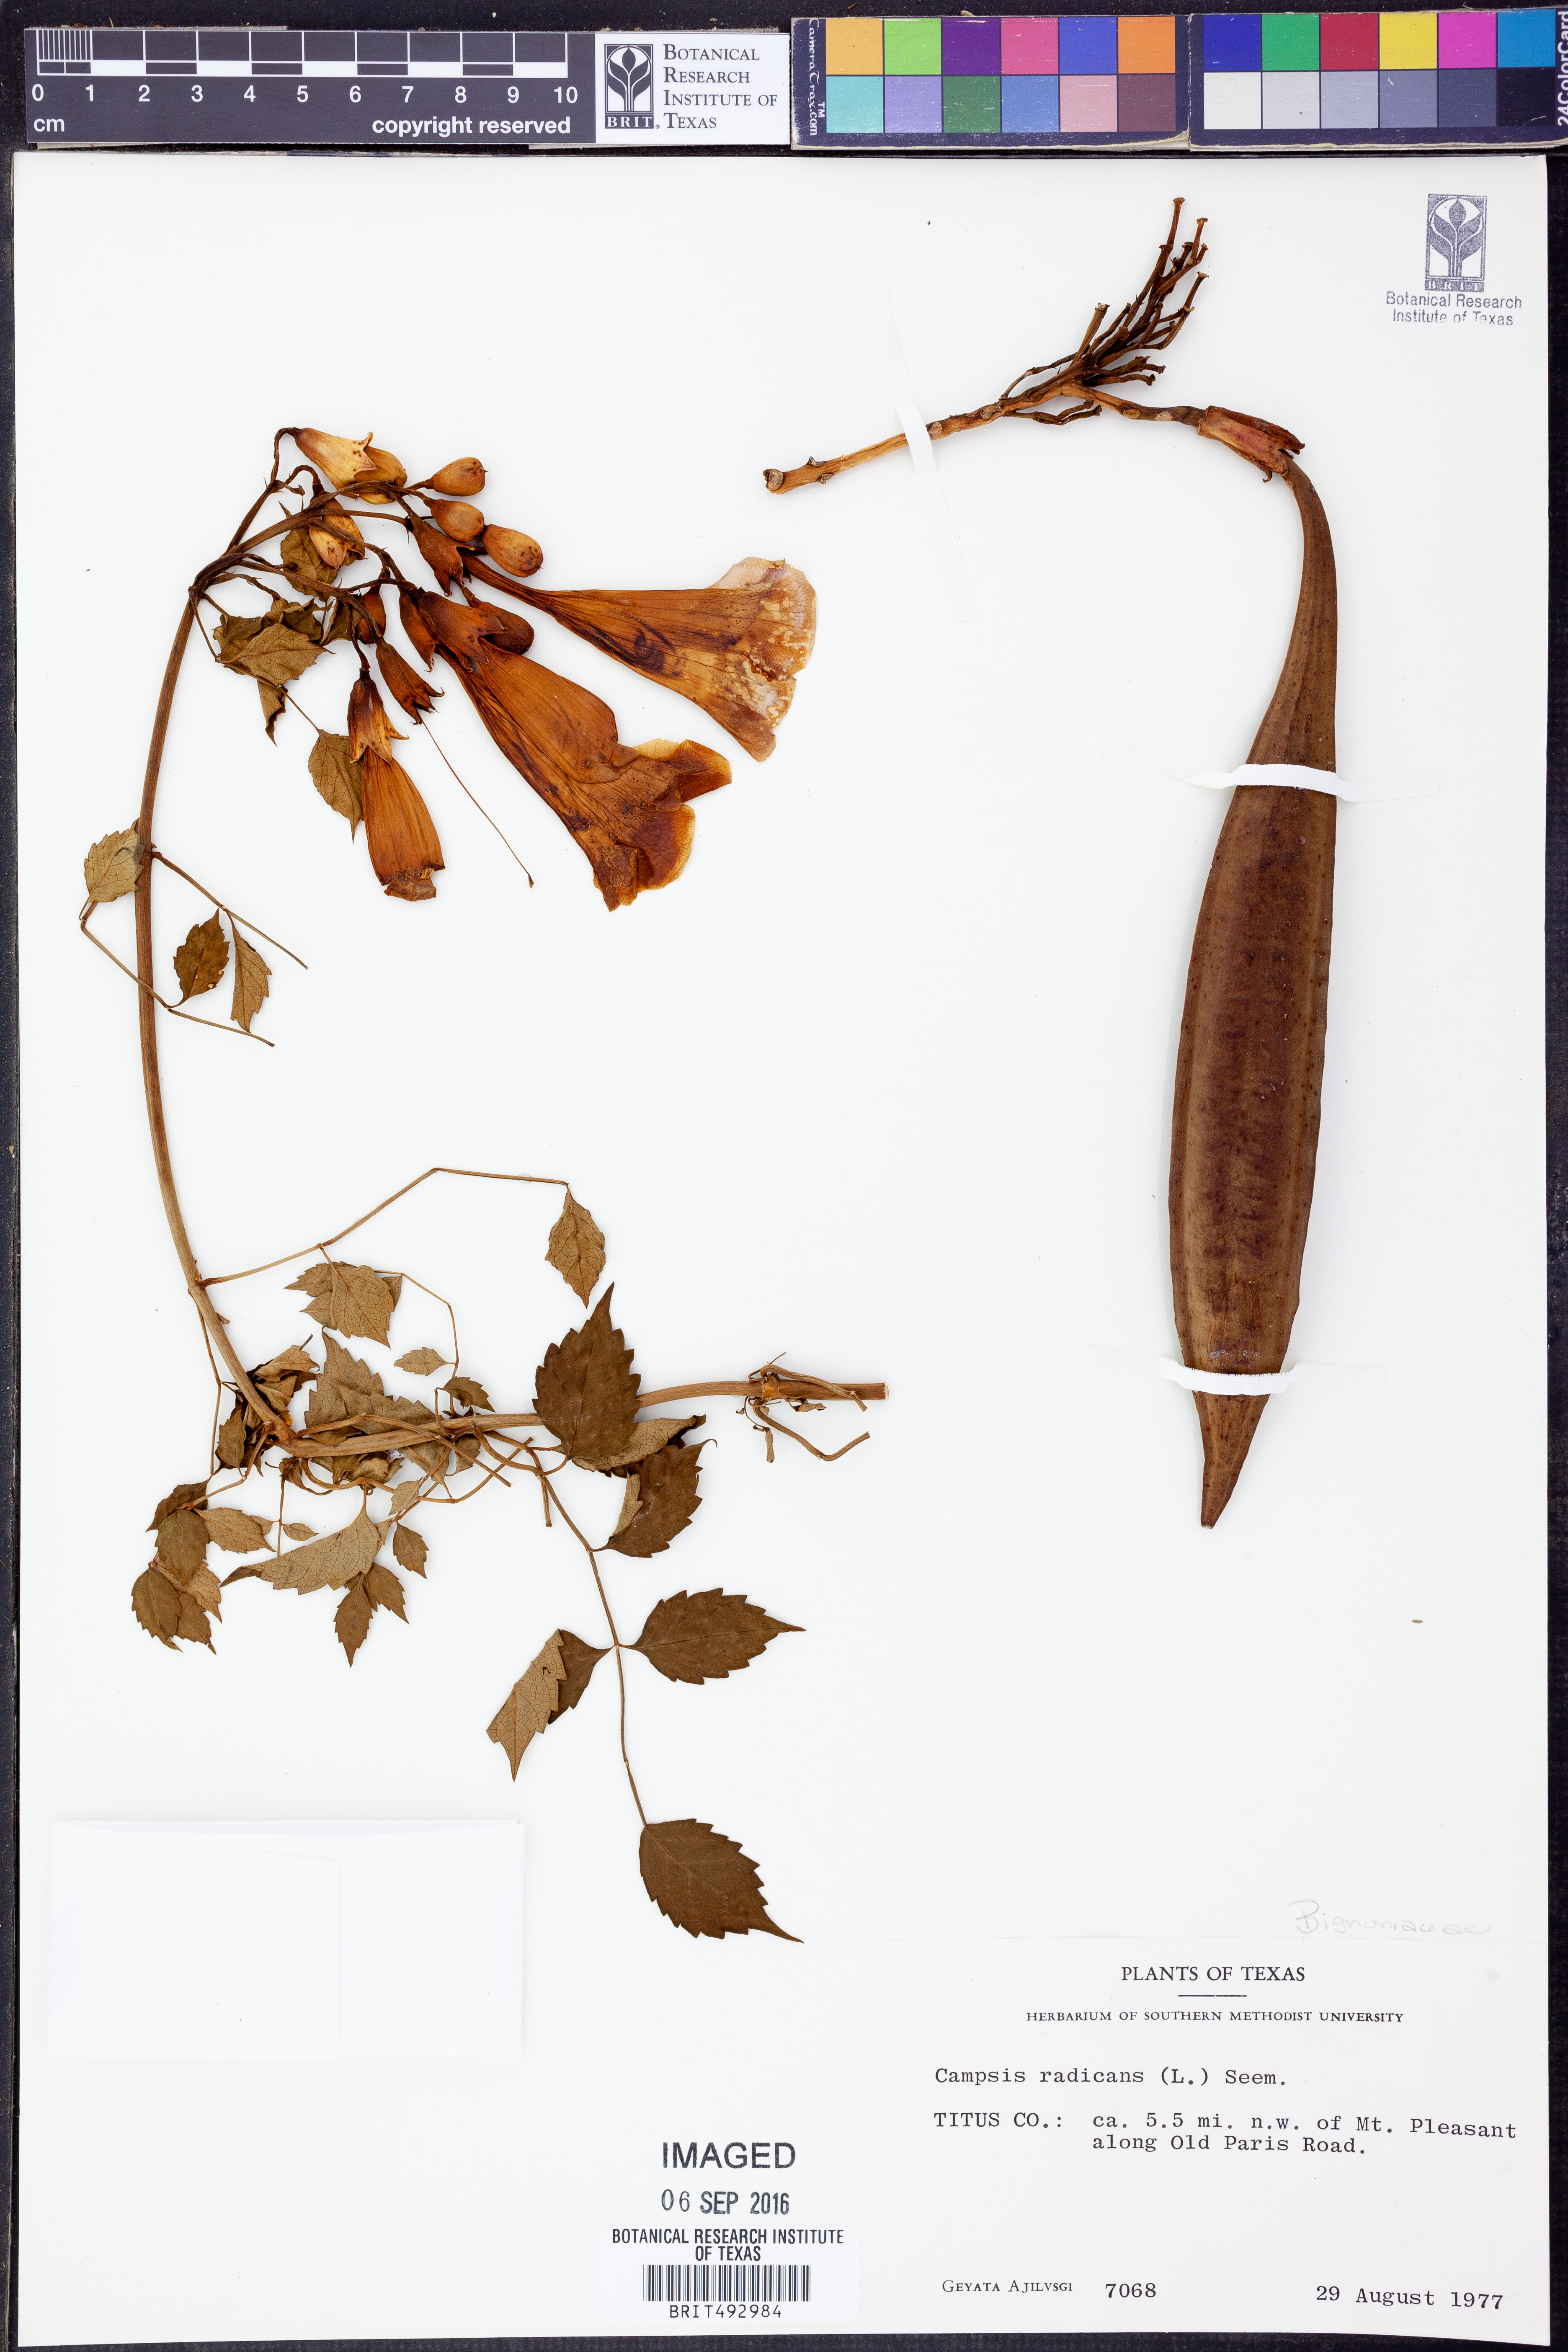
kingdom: Plantae
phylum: Tracheophyta
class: Magnoliopsida
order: Lamiales
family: Bignoniaceae
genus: Campsis
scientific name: Campsis radicans
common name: Trumpet-creeper
